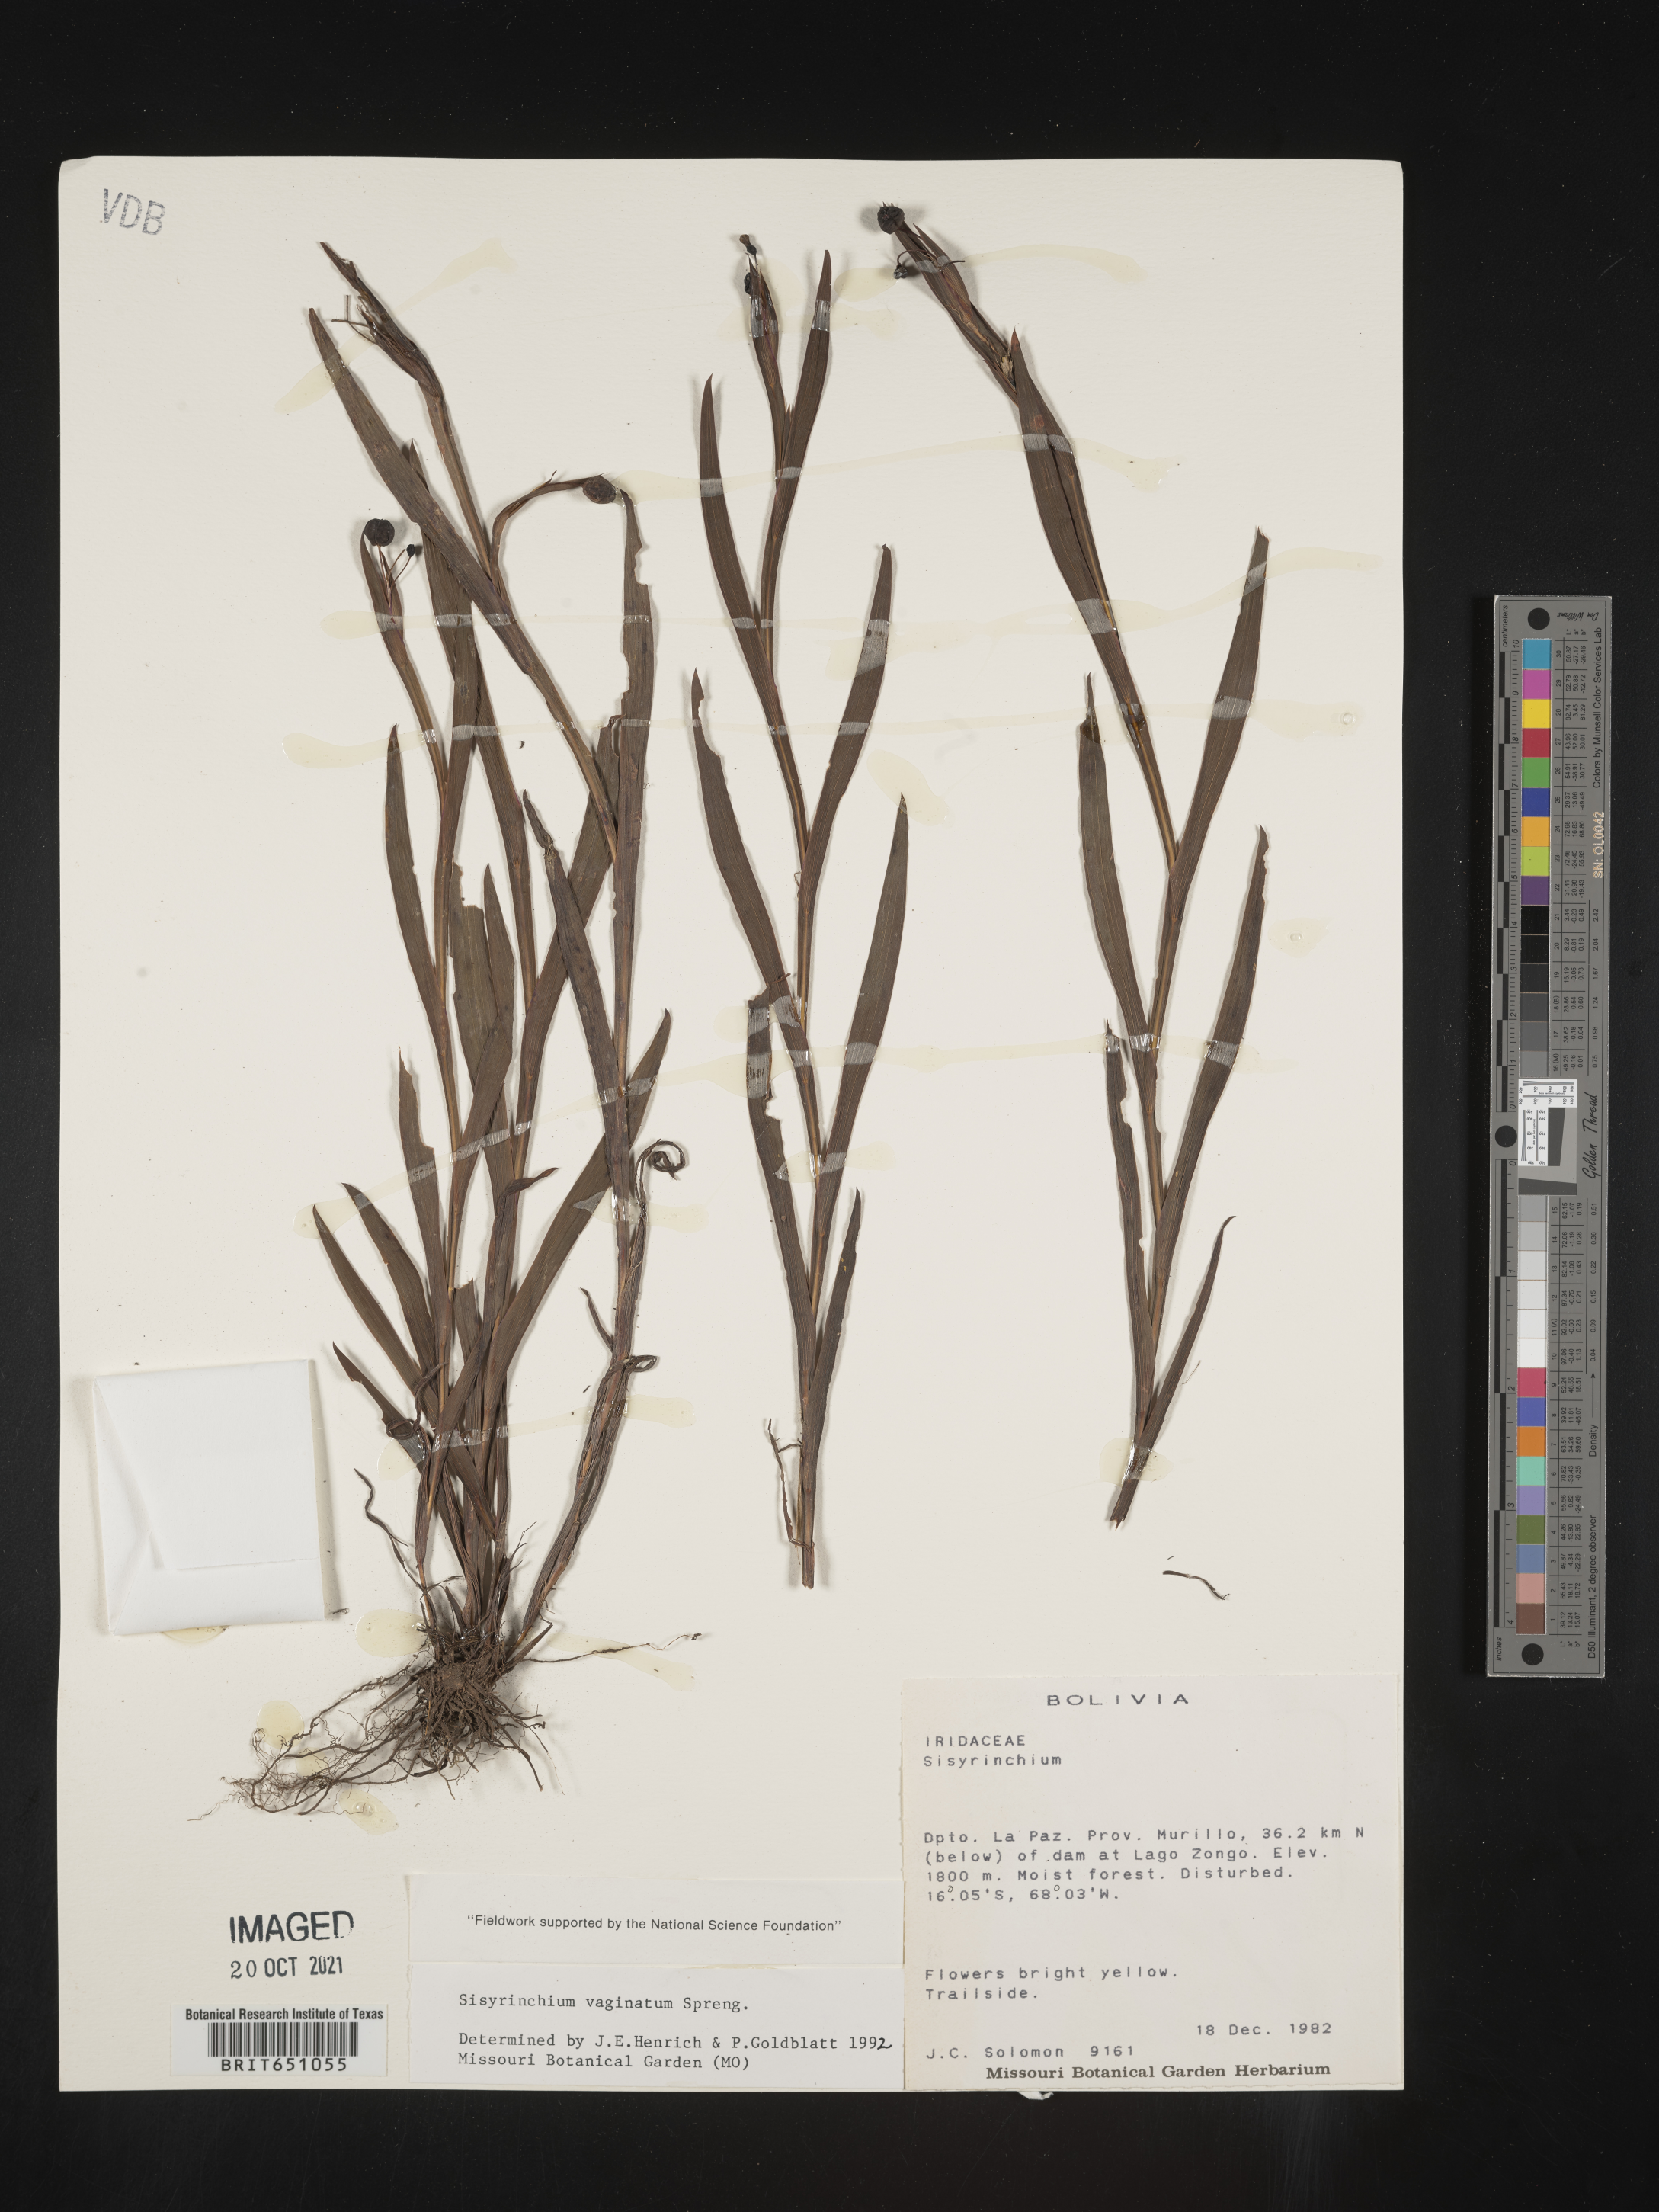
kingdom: Plantae
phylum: Tracheophyta
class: Liliopsida
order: Asparagales
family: Iridaceae
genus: Sisyrinchium
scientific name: Sisyrinchium
